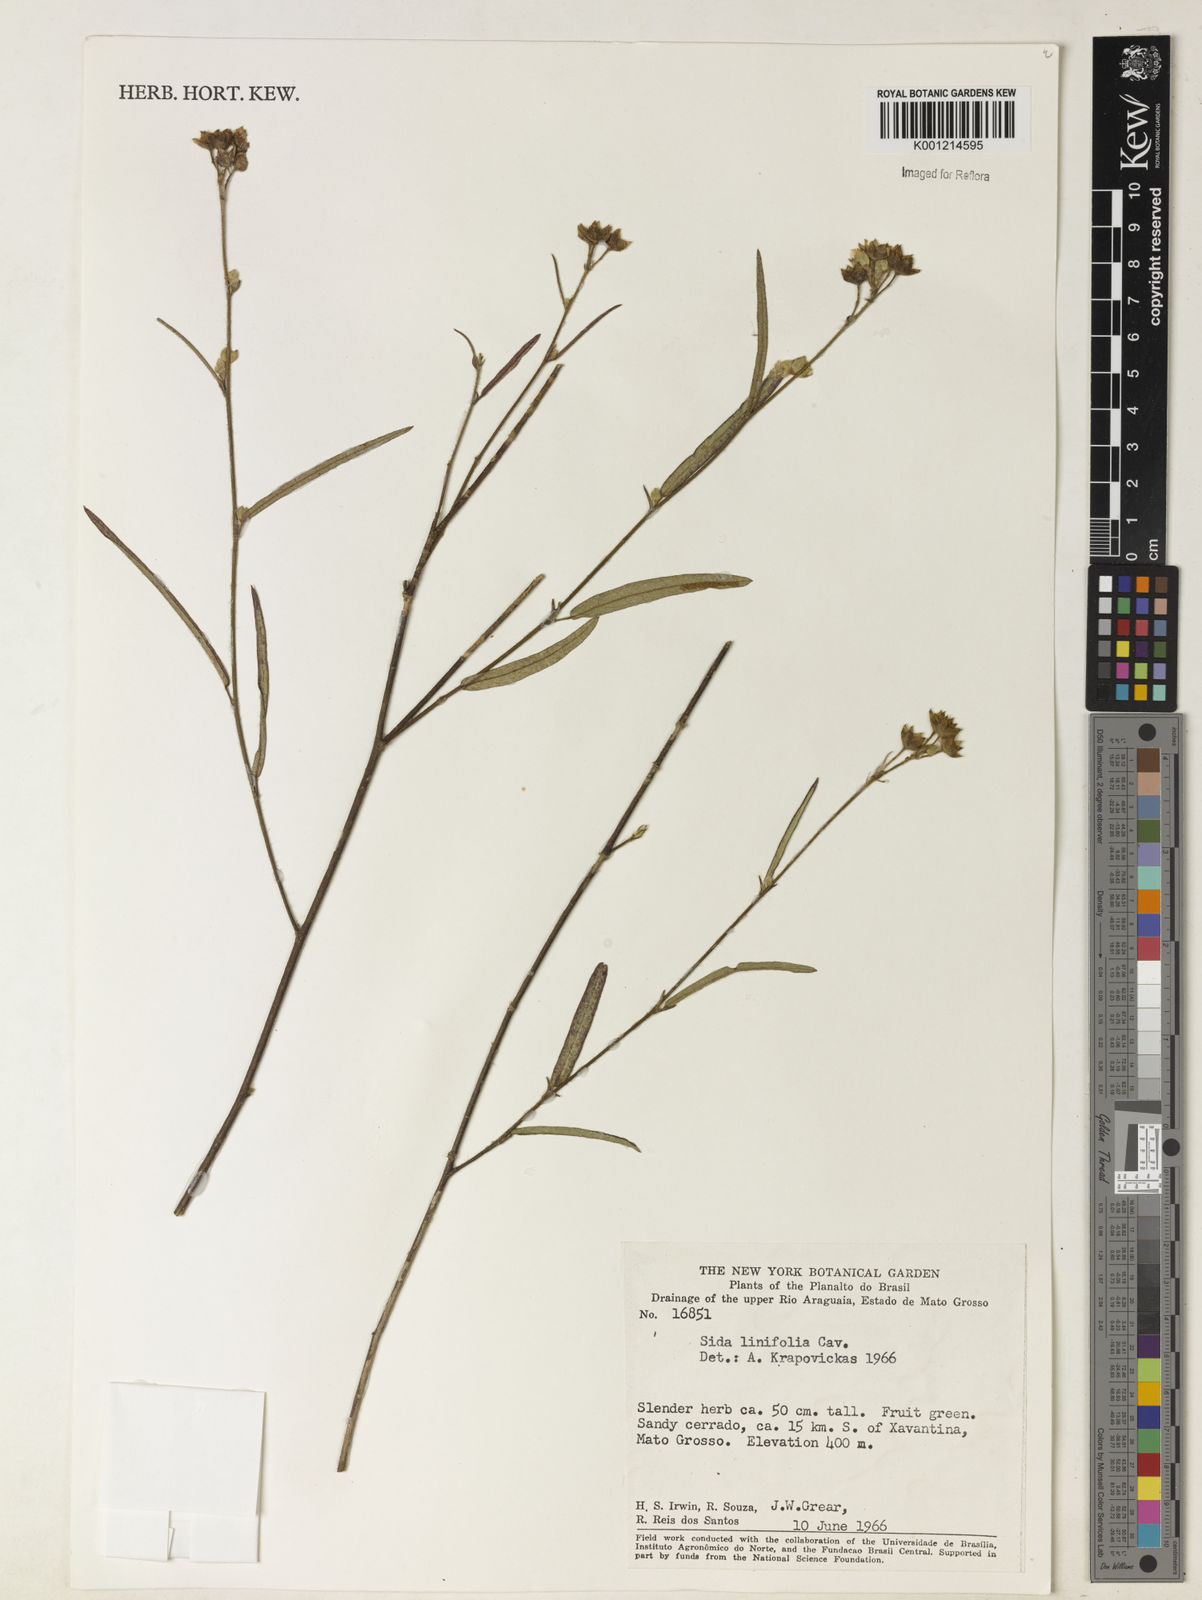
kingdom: Plantae
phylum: Tracheophyta
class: Magnoliopsida
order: Malvales
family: Malvaceae
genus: Sida
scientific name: Sida linifolia
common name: Flaxleaf fanpetals
